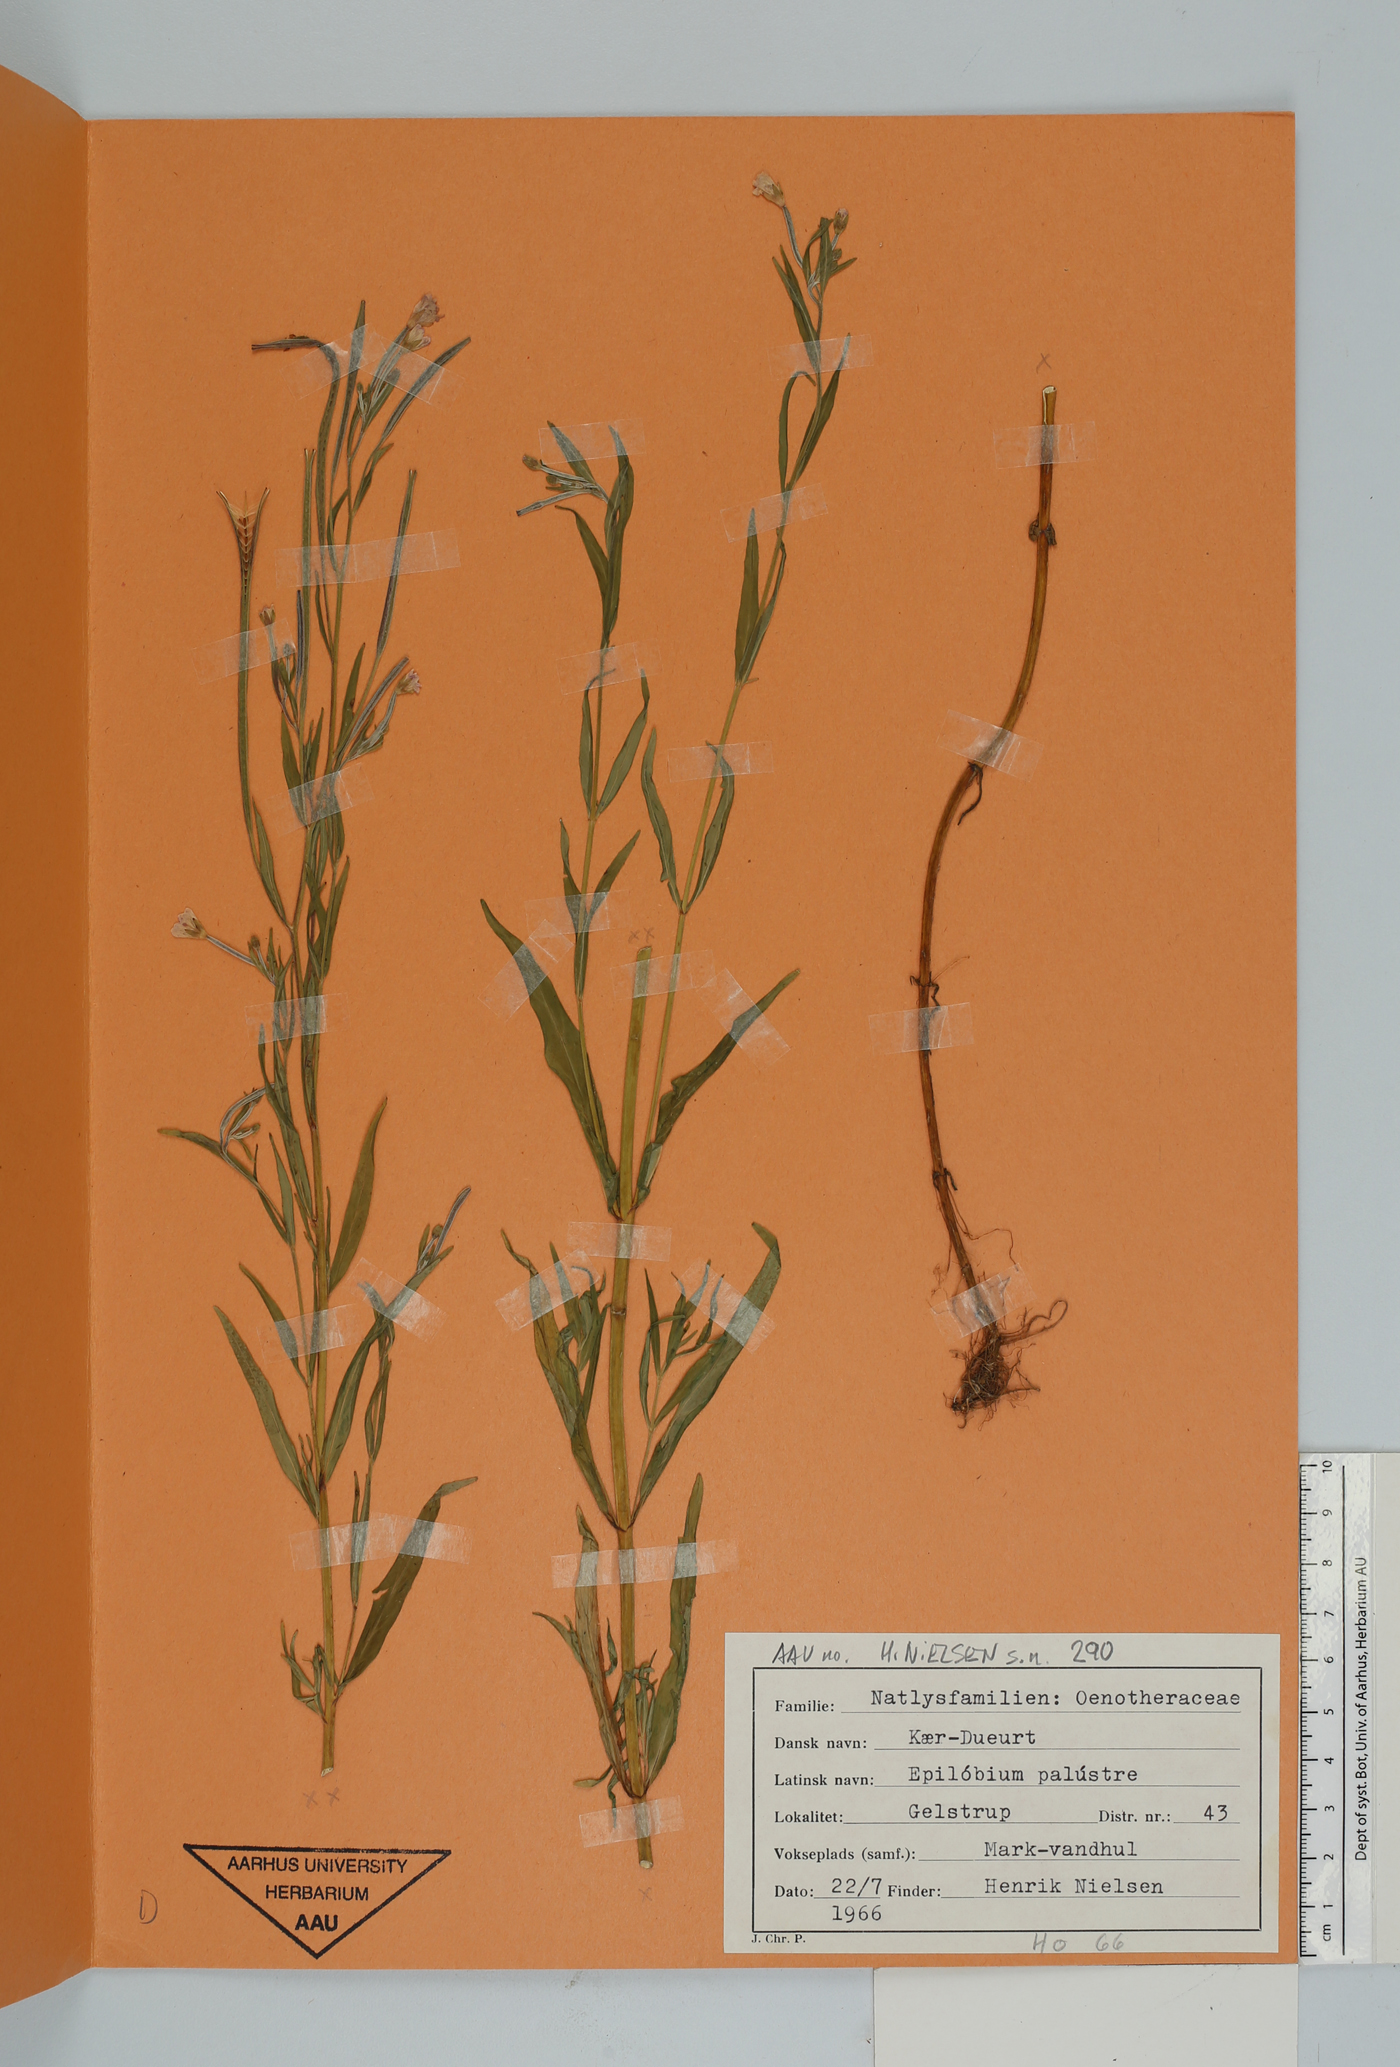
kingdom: Plantae
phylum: Tracheophyta
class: Magnoliopsida
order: Myrtales
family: Onagraceae
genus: Epilobium
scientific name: Epilobium palustre
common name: Marsh willowherb
